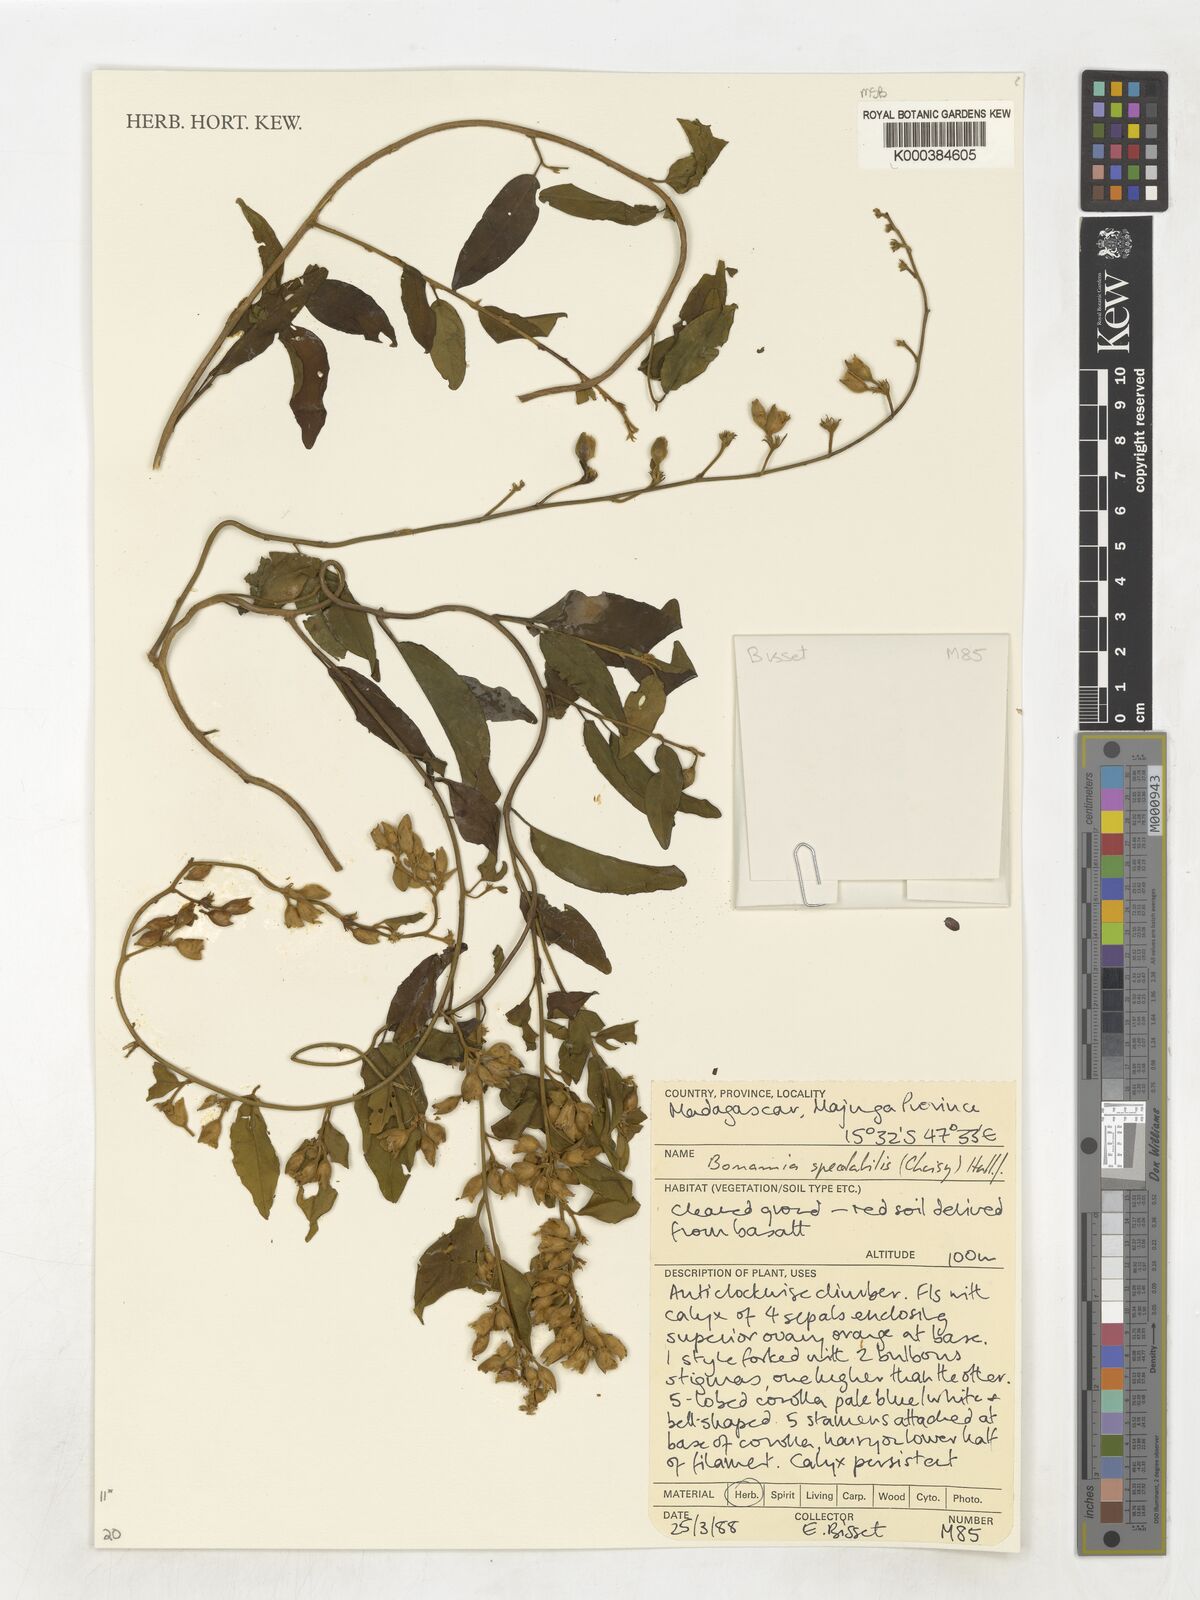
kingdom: Plantae
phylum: Tracheophyta
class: Magnoliopsida
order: Solanales
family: Convolvulaceae
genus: Bonamia
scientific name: Bonamia spectabilis
